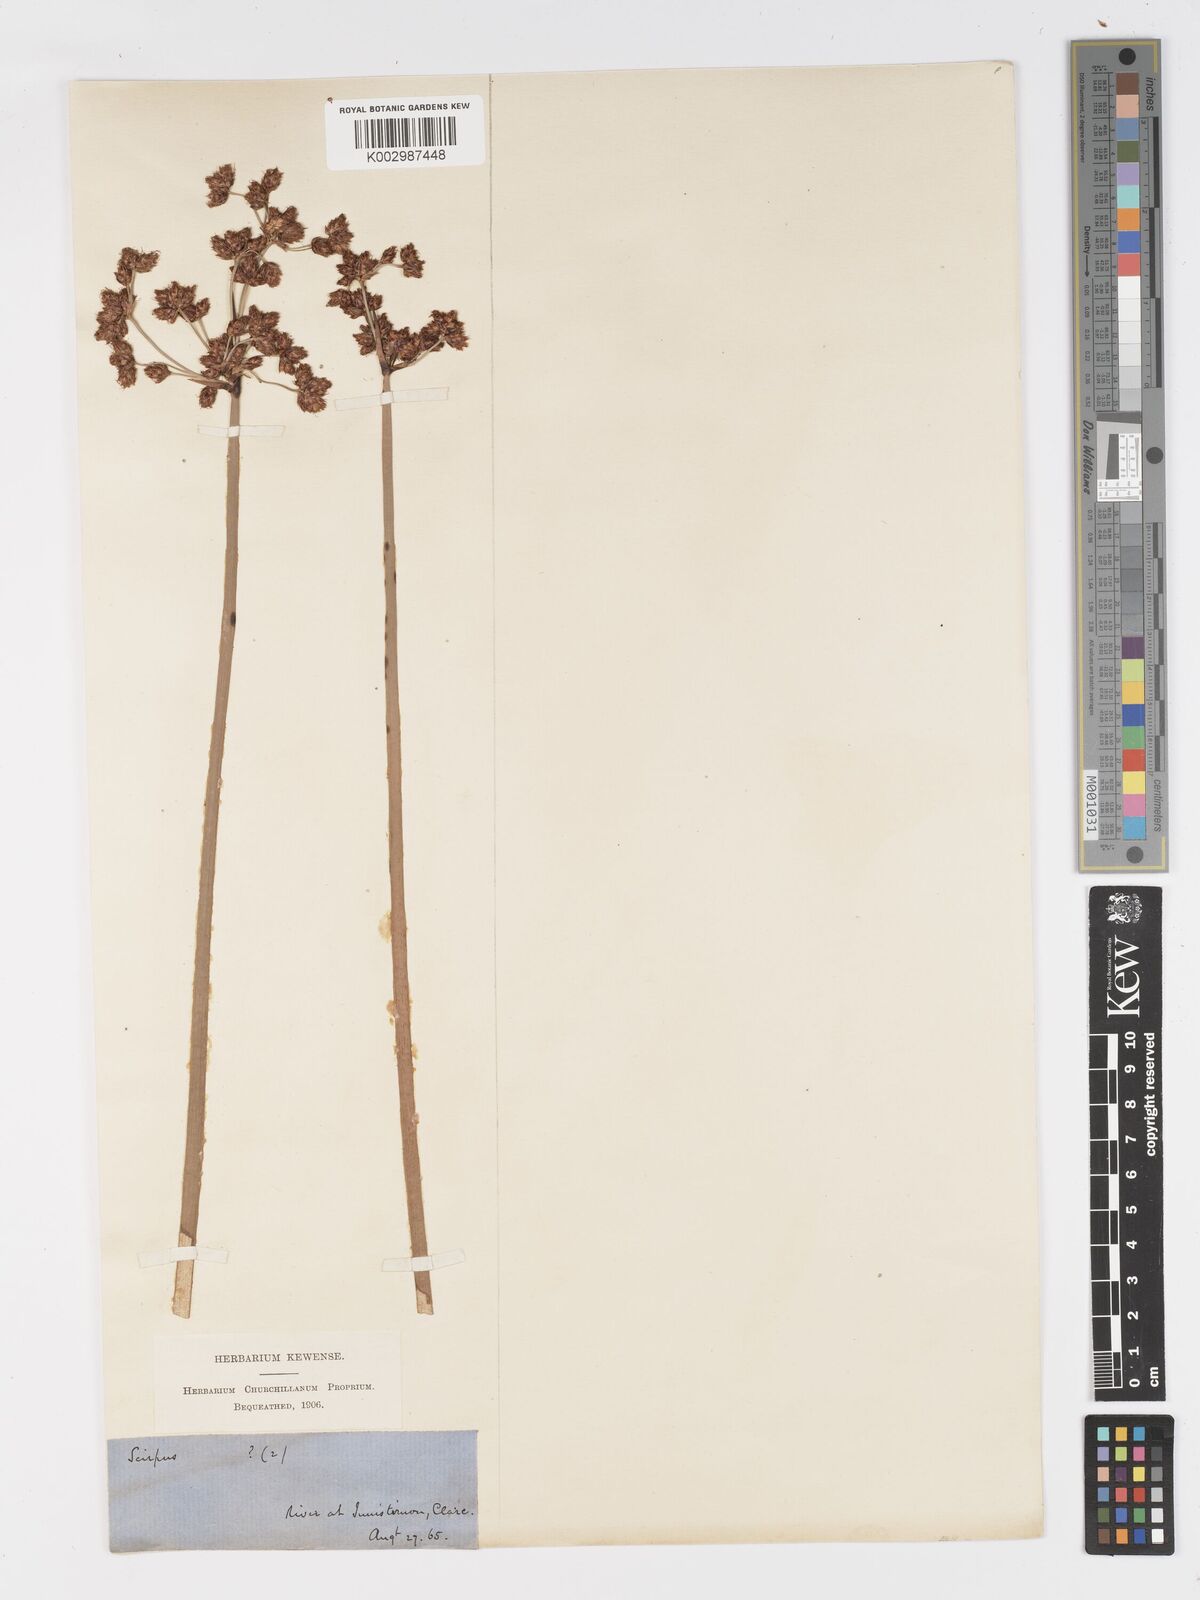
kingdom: Plantae
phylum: Tracheophyta
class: Liliopsida
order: Poales
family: Cyperaceae
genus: Schoenoplectus
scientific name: Schoenoplectus lacustris
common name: Common club-rush
